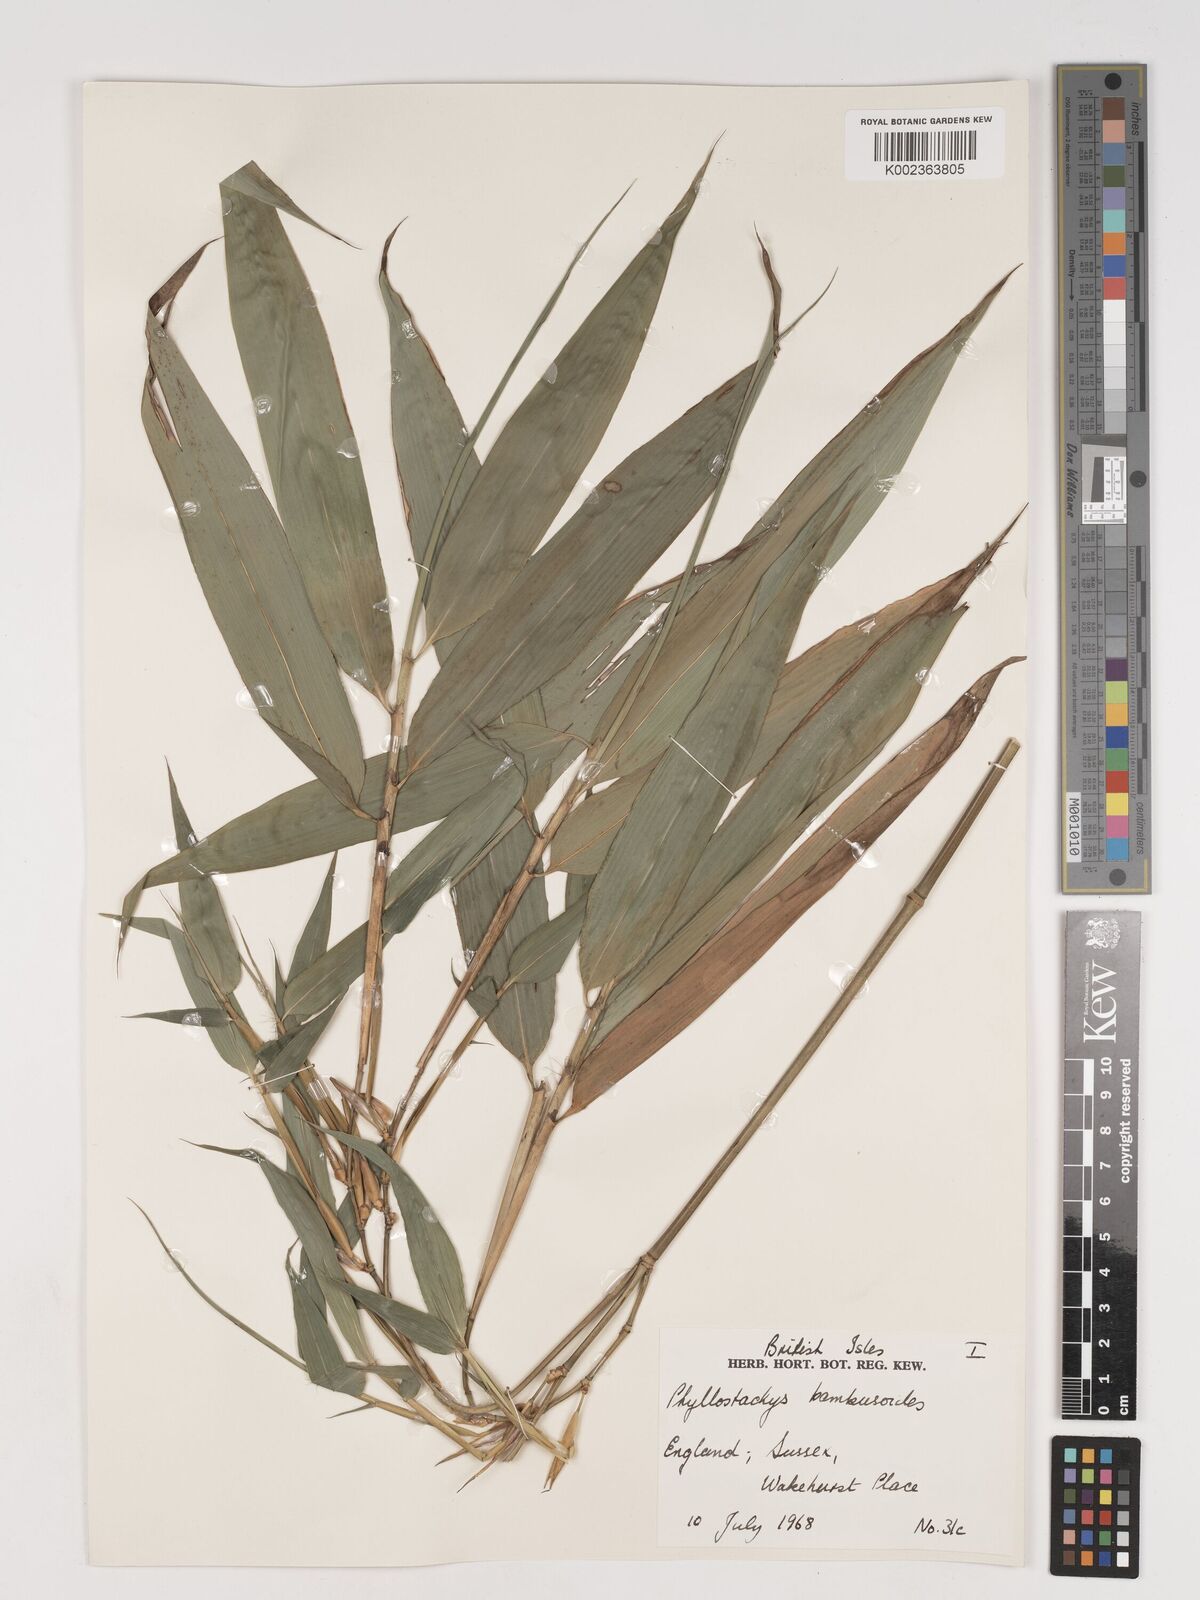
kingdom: Plantae
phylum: Tracheophyta
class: Liliopsida
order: Poales
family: Poaceae
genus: Phyllostachys
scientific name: Phyllostachys reticulata
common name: Bamboo
